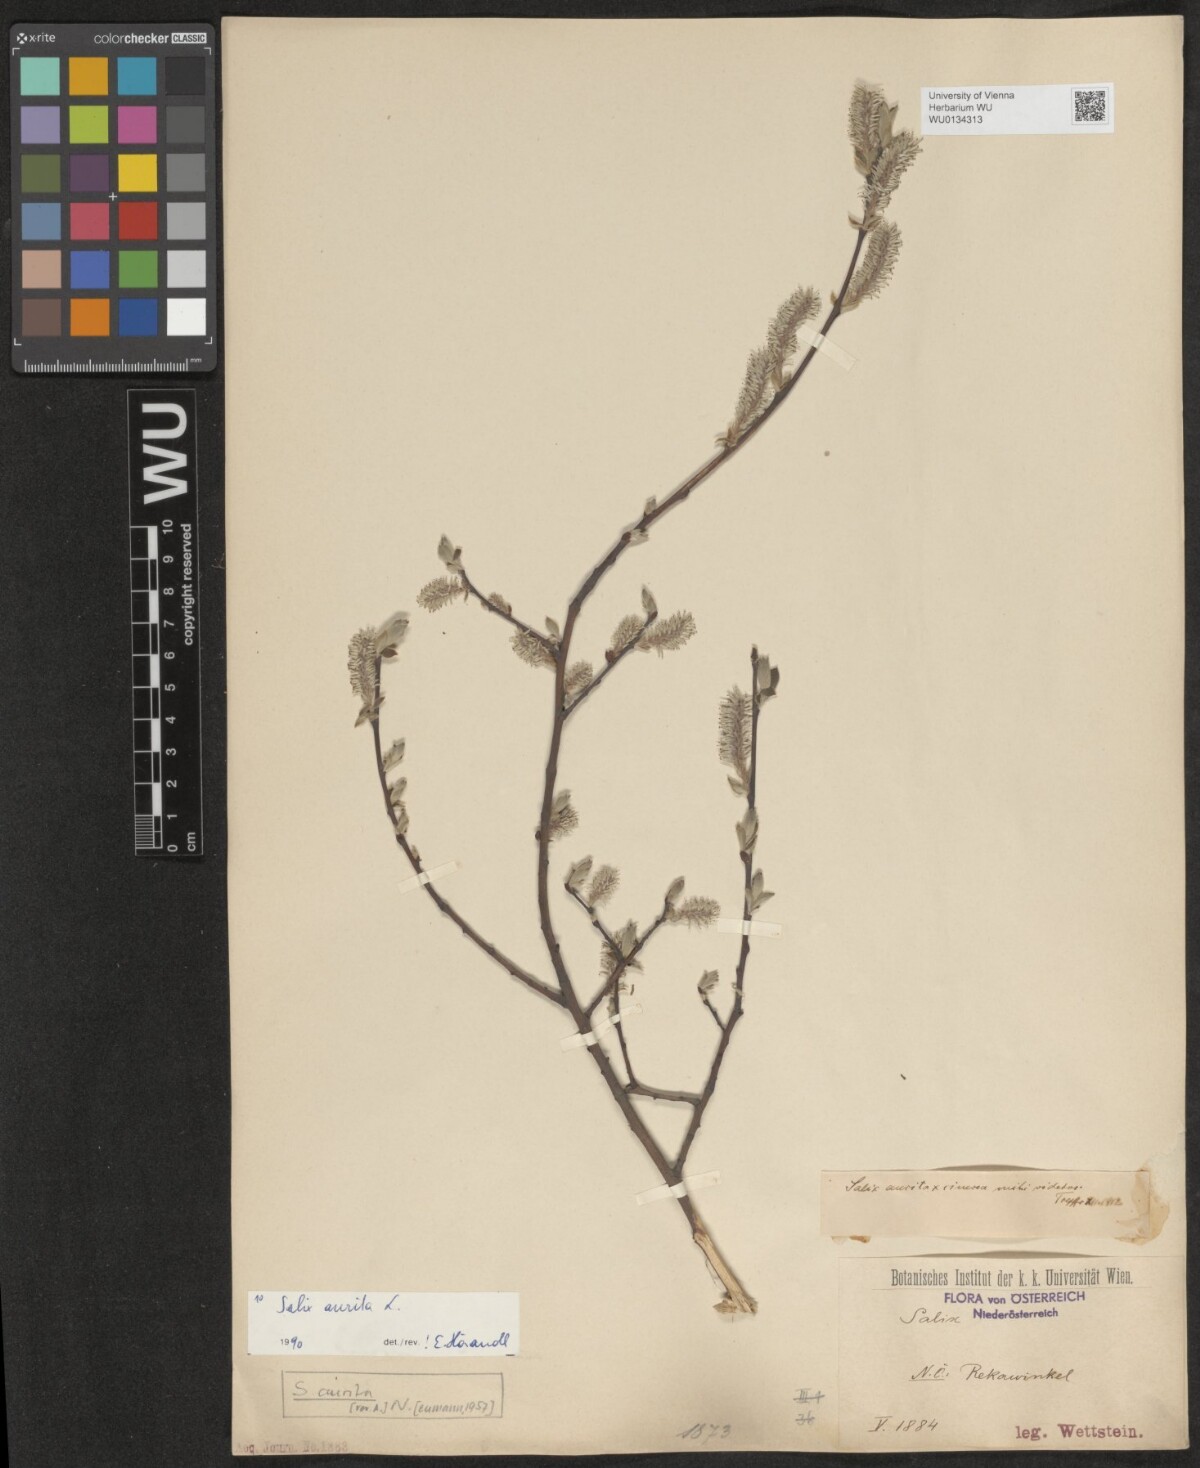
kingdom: Plantae
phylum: Tracheophyta
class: Magnoliopsida
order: Malpighiales
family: Salicaceae
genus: Salix
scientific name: Salix aurita
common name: Eared willow
